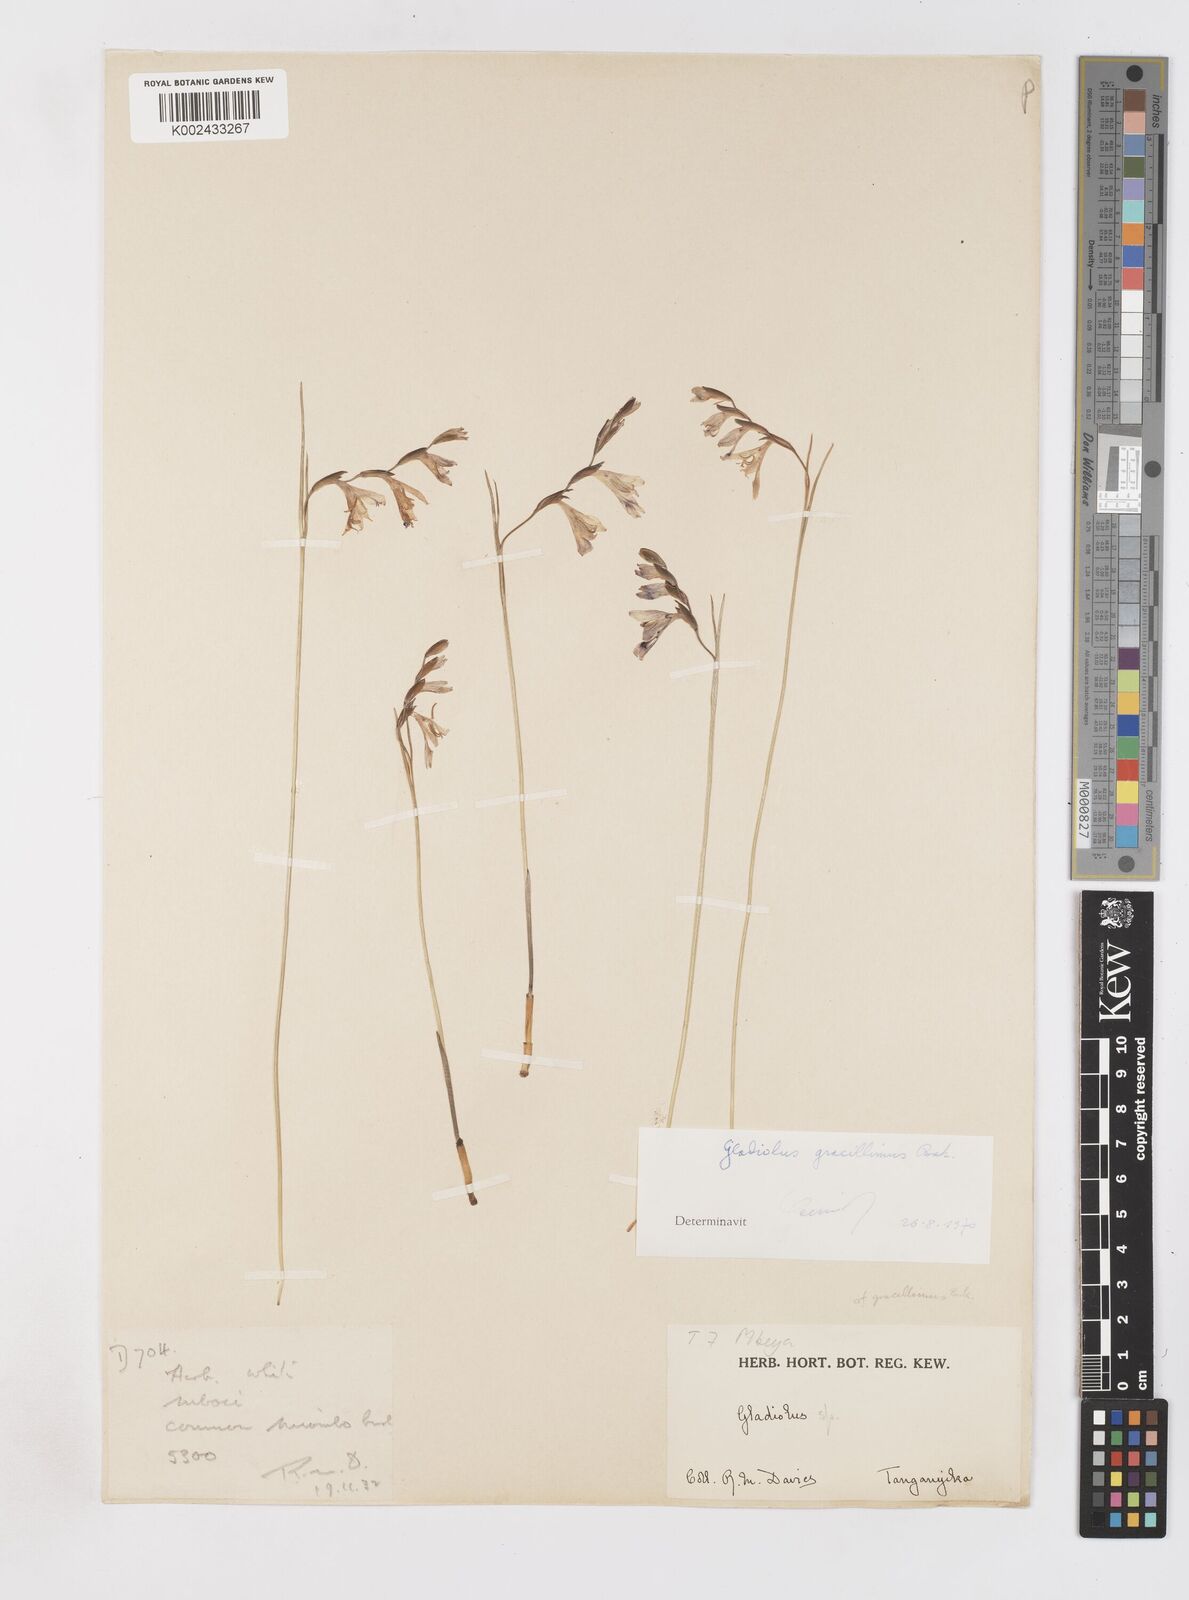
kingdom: Plantae
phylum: Tracheophyta
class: Liliopsida
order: Asparagales
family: Iridaceae
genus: Gladiolus
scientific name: Gladiolus gracillimus
